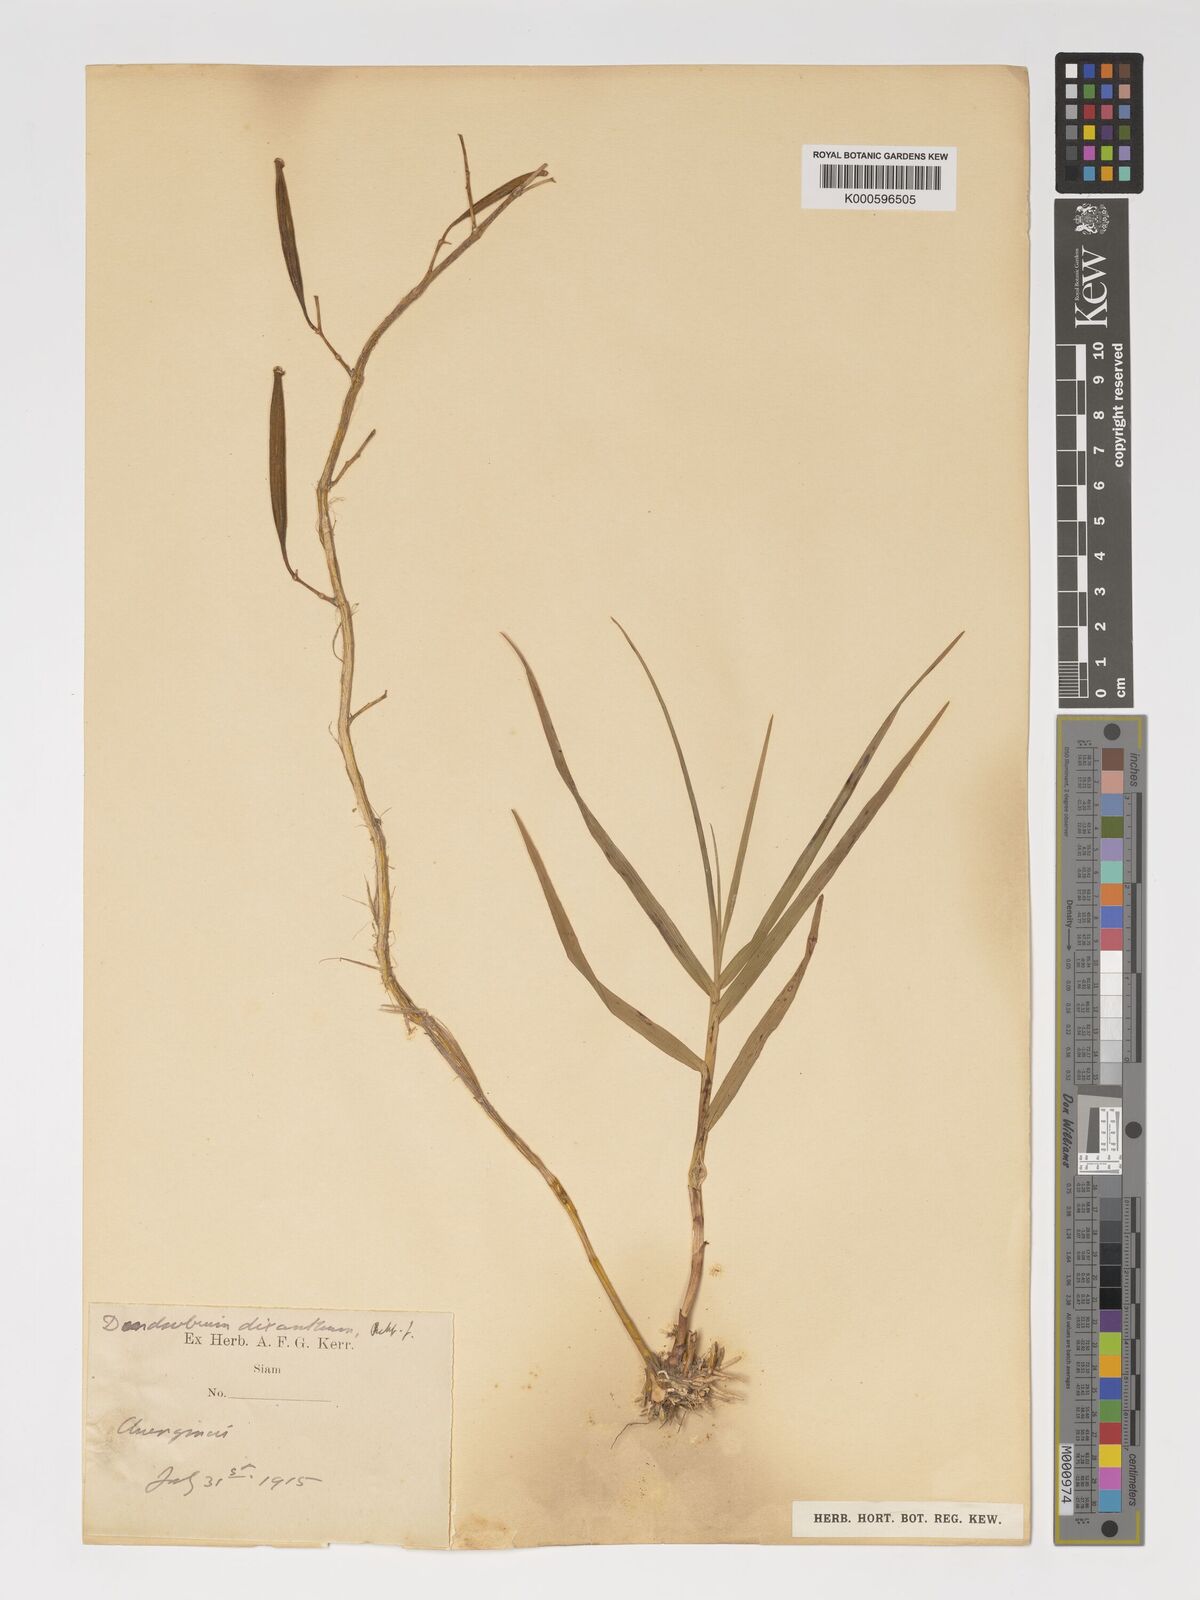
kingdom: Plantae
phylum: Tracheophyta
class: Liliopsida
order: Asparagales
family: Orchidaceae
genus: Dendrobium
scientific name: Dendrobium dixanthum
